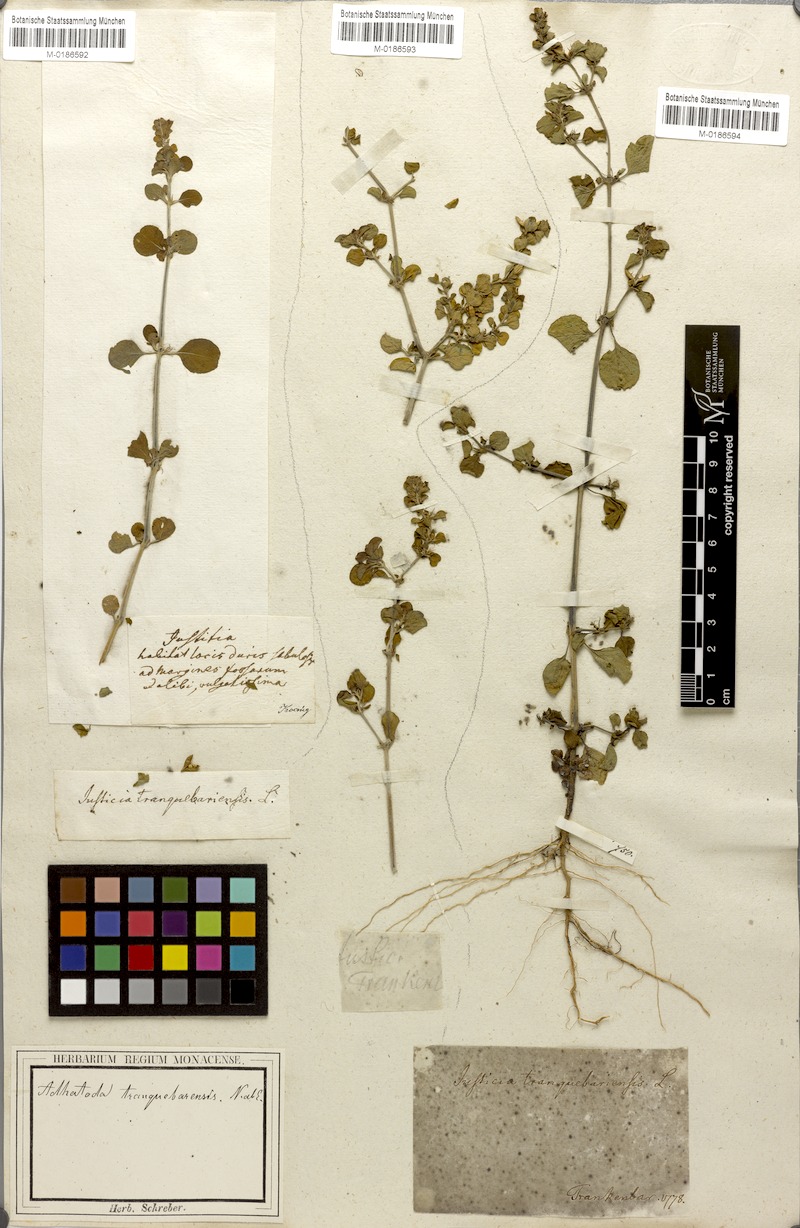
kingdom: Plantae
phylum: Tracheophyta
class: Magnoliopsida
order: Lamiales
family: Acanthaceae
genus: Justicia
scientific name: Justicia tranquebariensis
